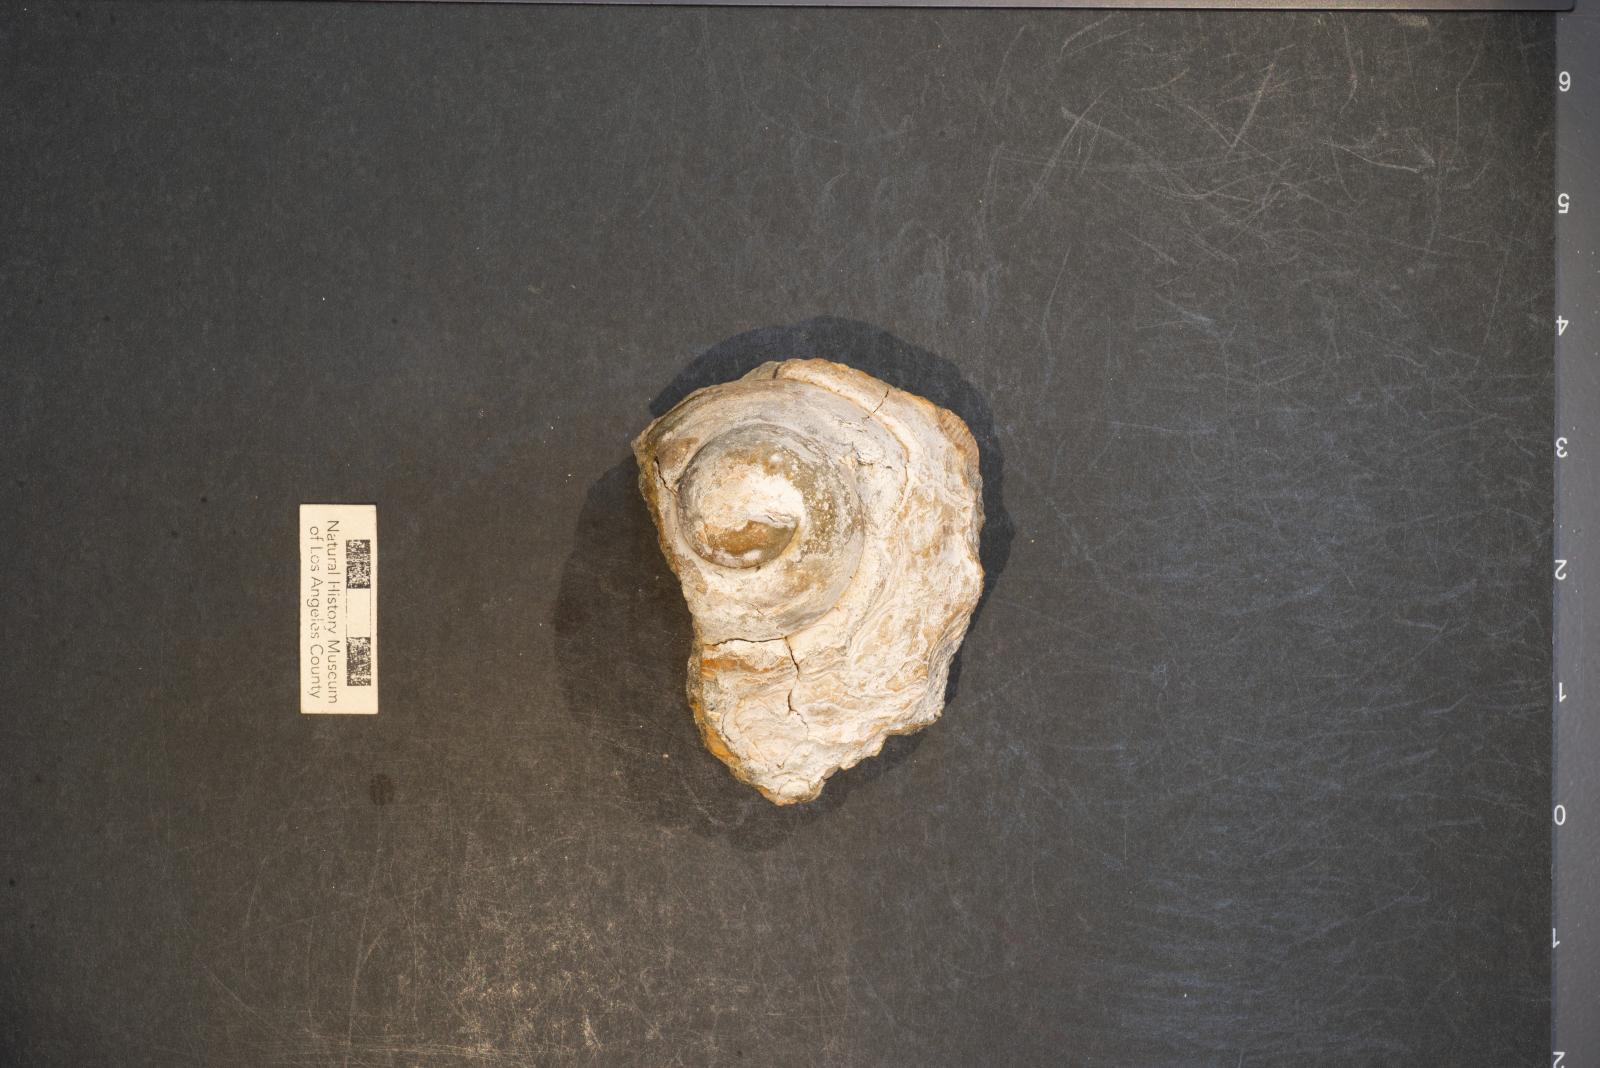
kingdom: Animalia
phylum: Mollusca
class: Gastropoda
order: Littorinimorpha
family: Xenophoridae
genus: Xenophora
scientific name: Xenophora hermax
